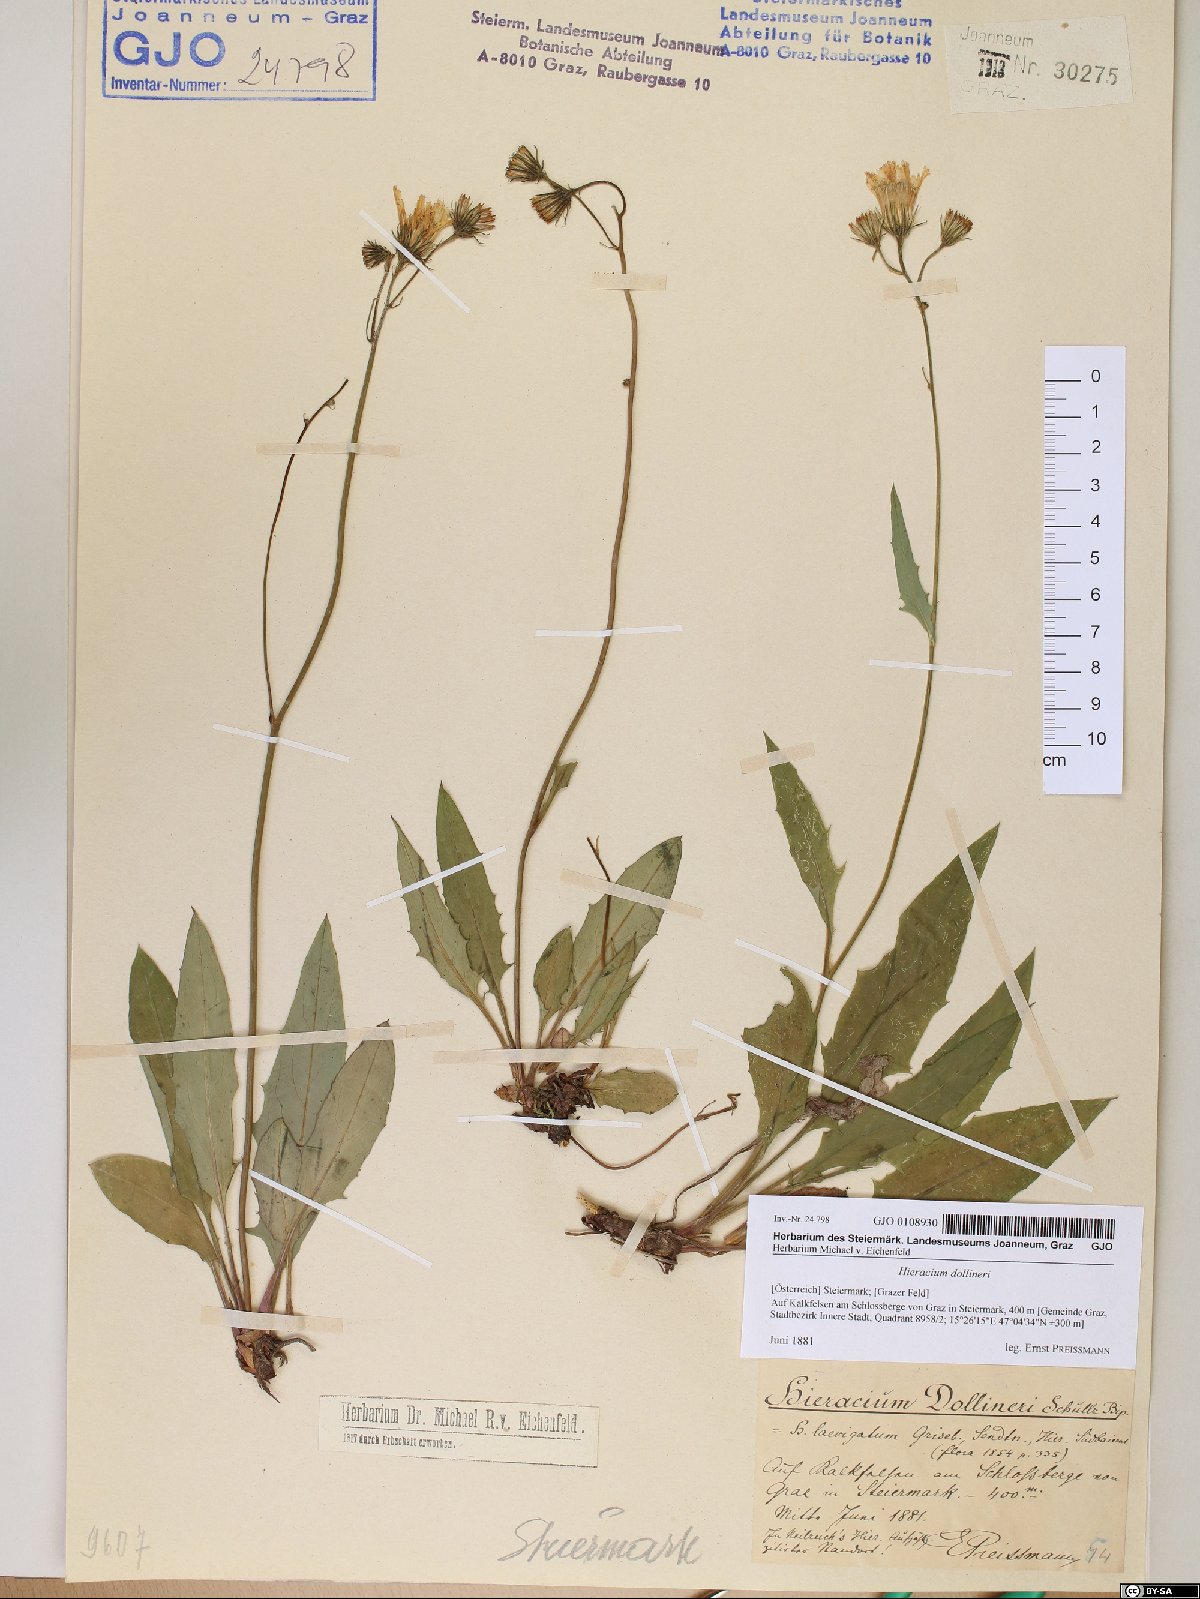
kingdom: Plantae
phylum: Tracheophyta
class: Magnoliopsida
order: Asterales
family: Asteraceae
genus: Hieracium
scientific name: Hieracium dollineri
